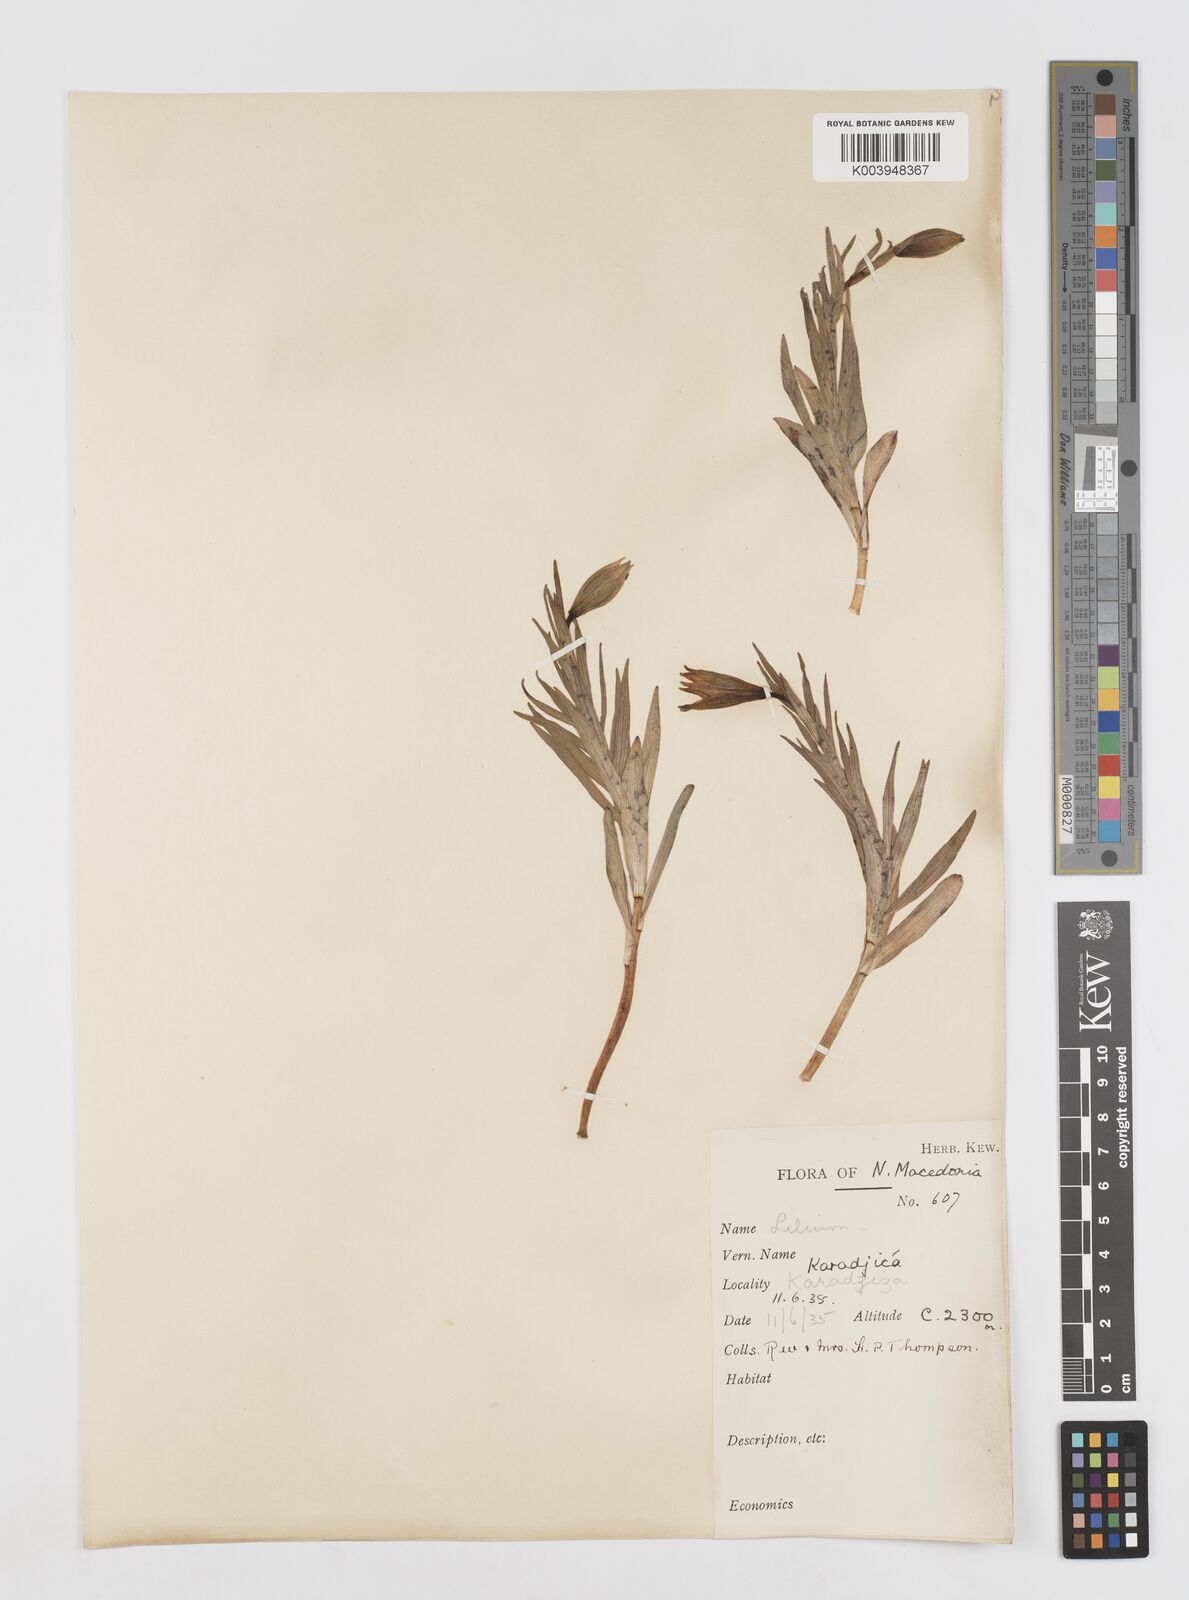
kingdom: Plantae
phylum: Tracheophyta
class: Liliopsida
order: Liliales
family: Liliaceae
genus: Lilium
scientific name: Lilium carniolicum
